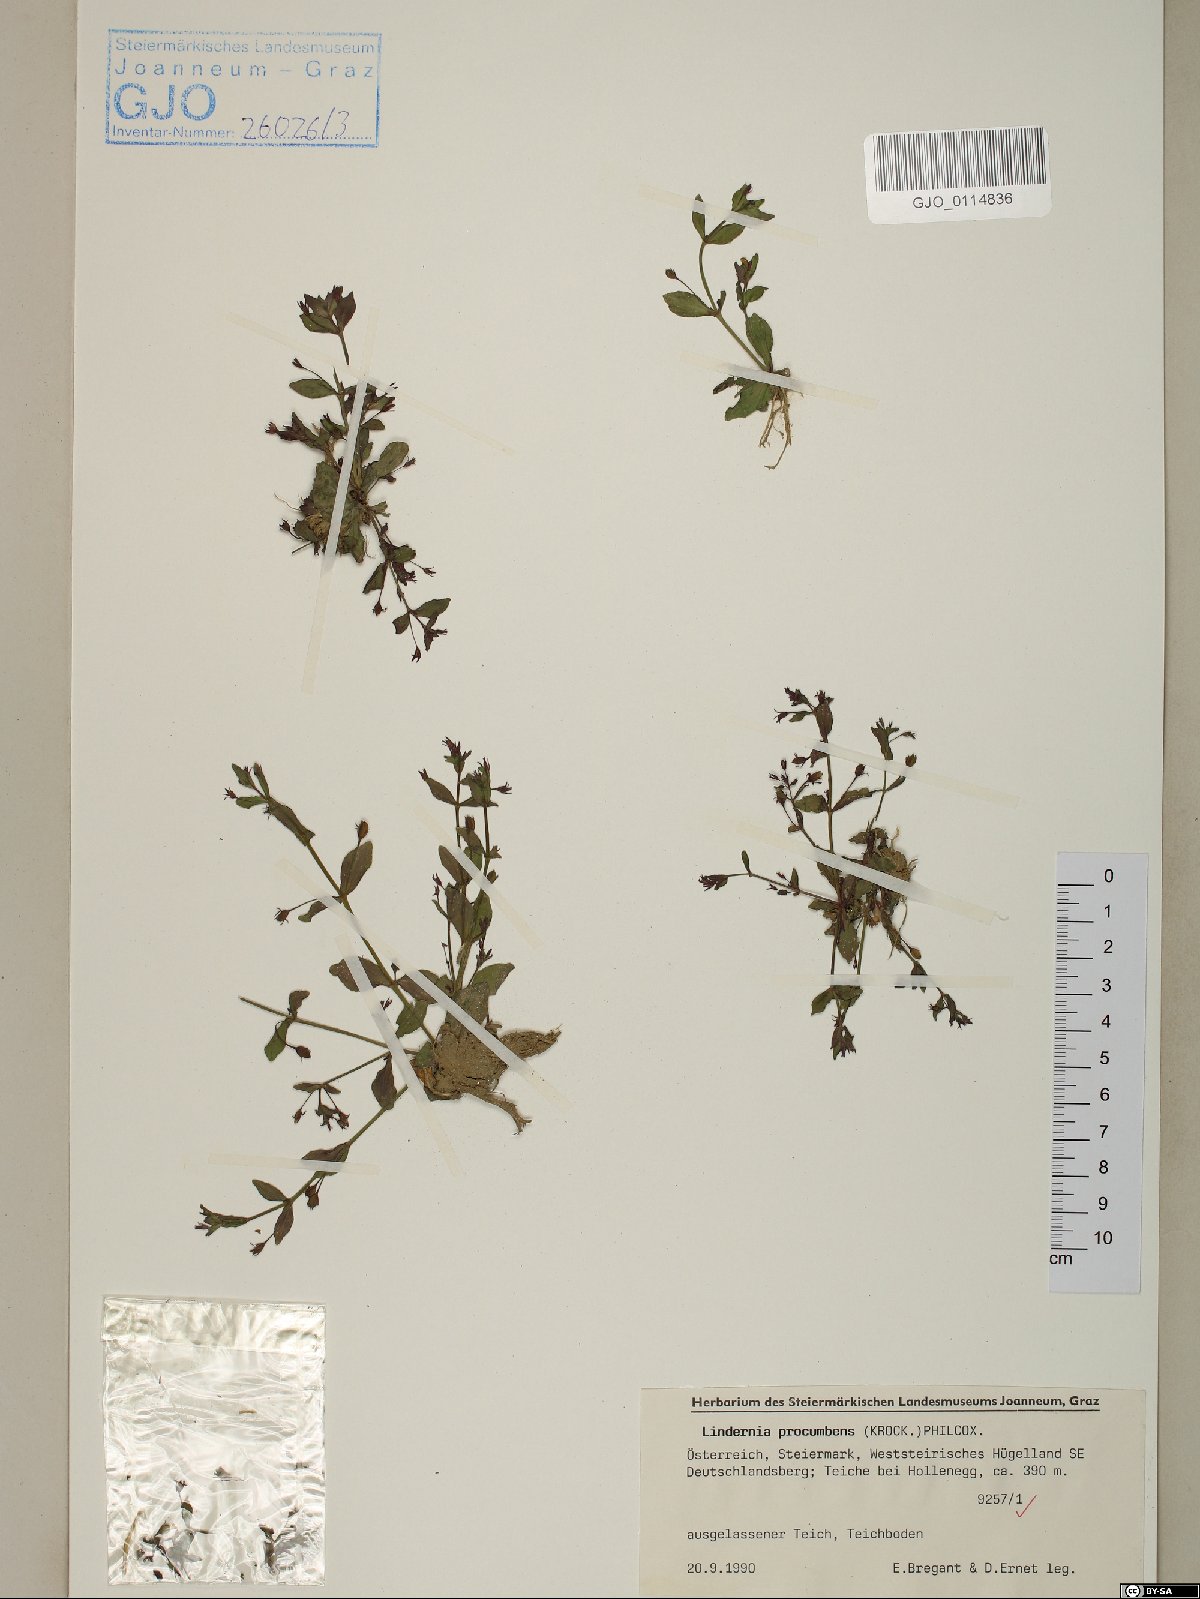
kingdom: Plantae
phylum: Tracheophyta
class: Magnoliopsida
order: Lamiales
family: Linderniaceae
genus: Lindernia
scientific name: Lindernia procumbens
